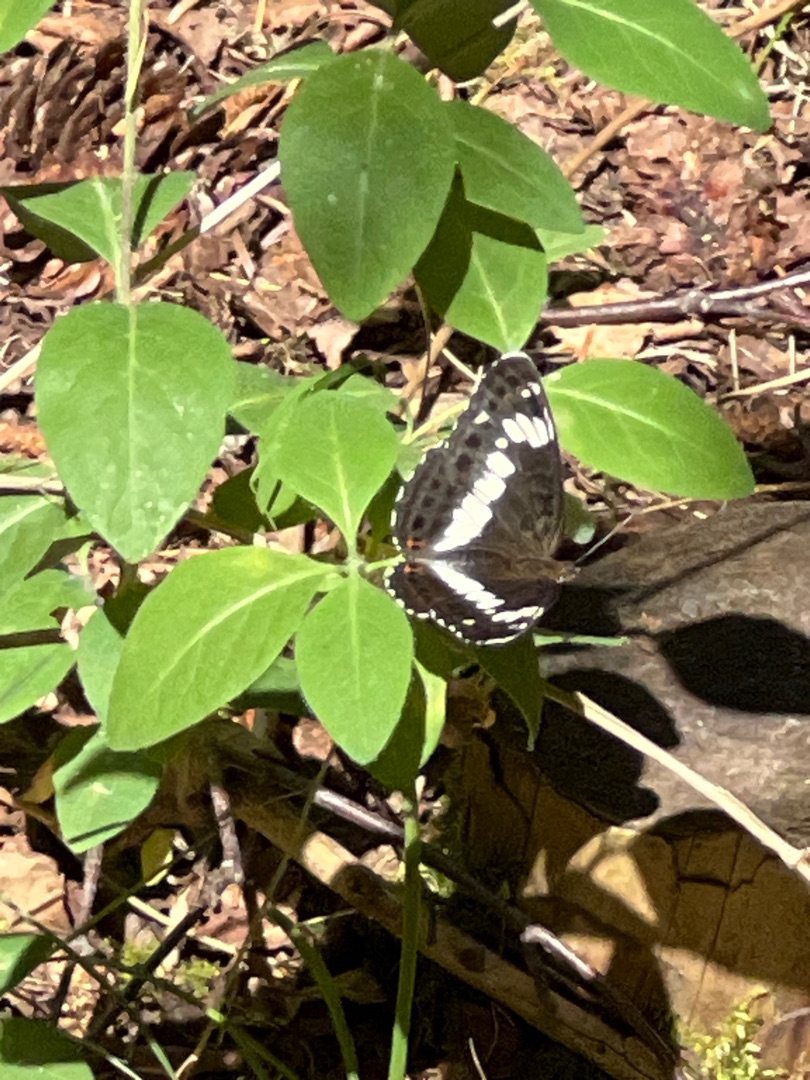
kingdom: Animalia
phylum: Arthropoda
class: Insecta
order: Lepidoptera
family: Nymphalidae
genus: Ladoga
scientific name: Ladoga camilla
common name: Hvid admiral
